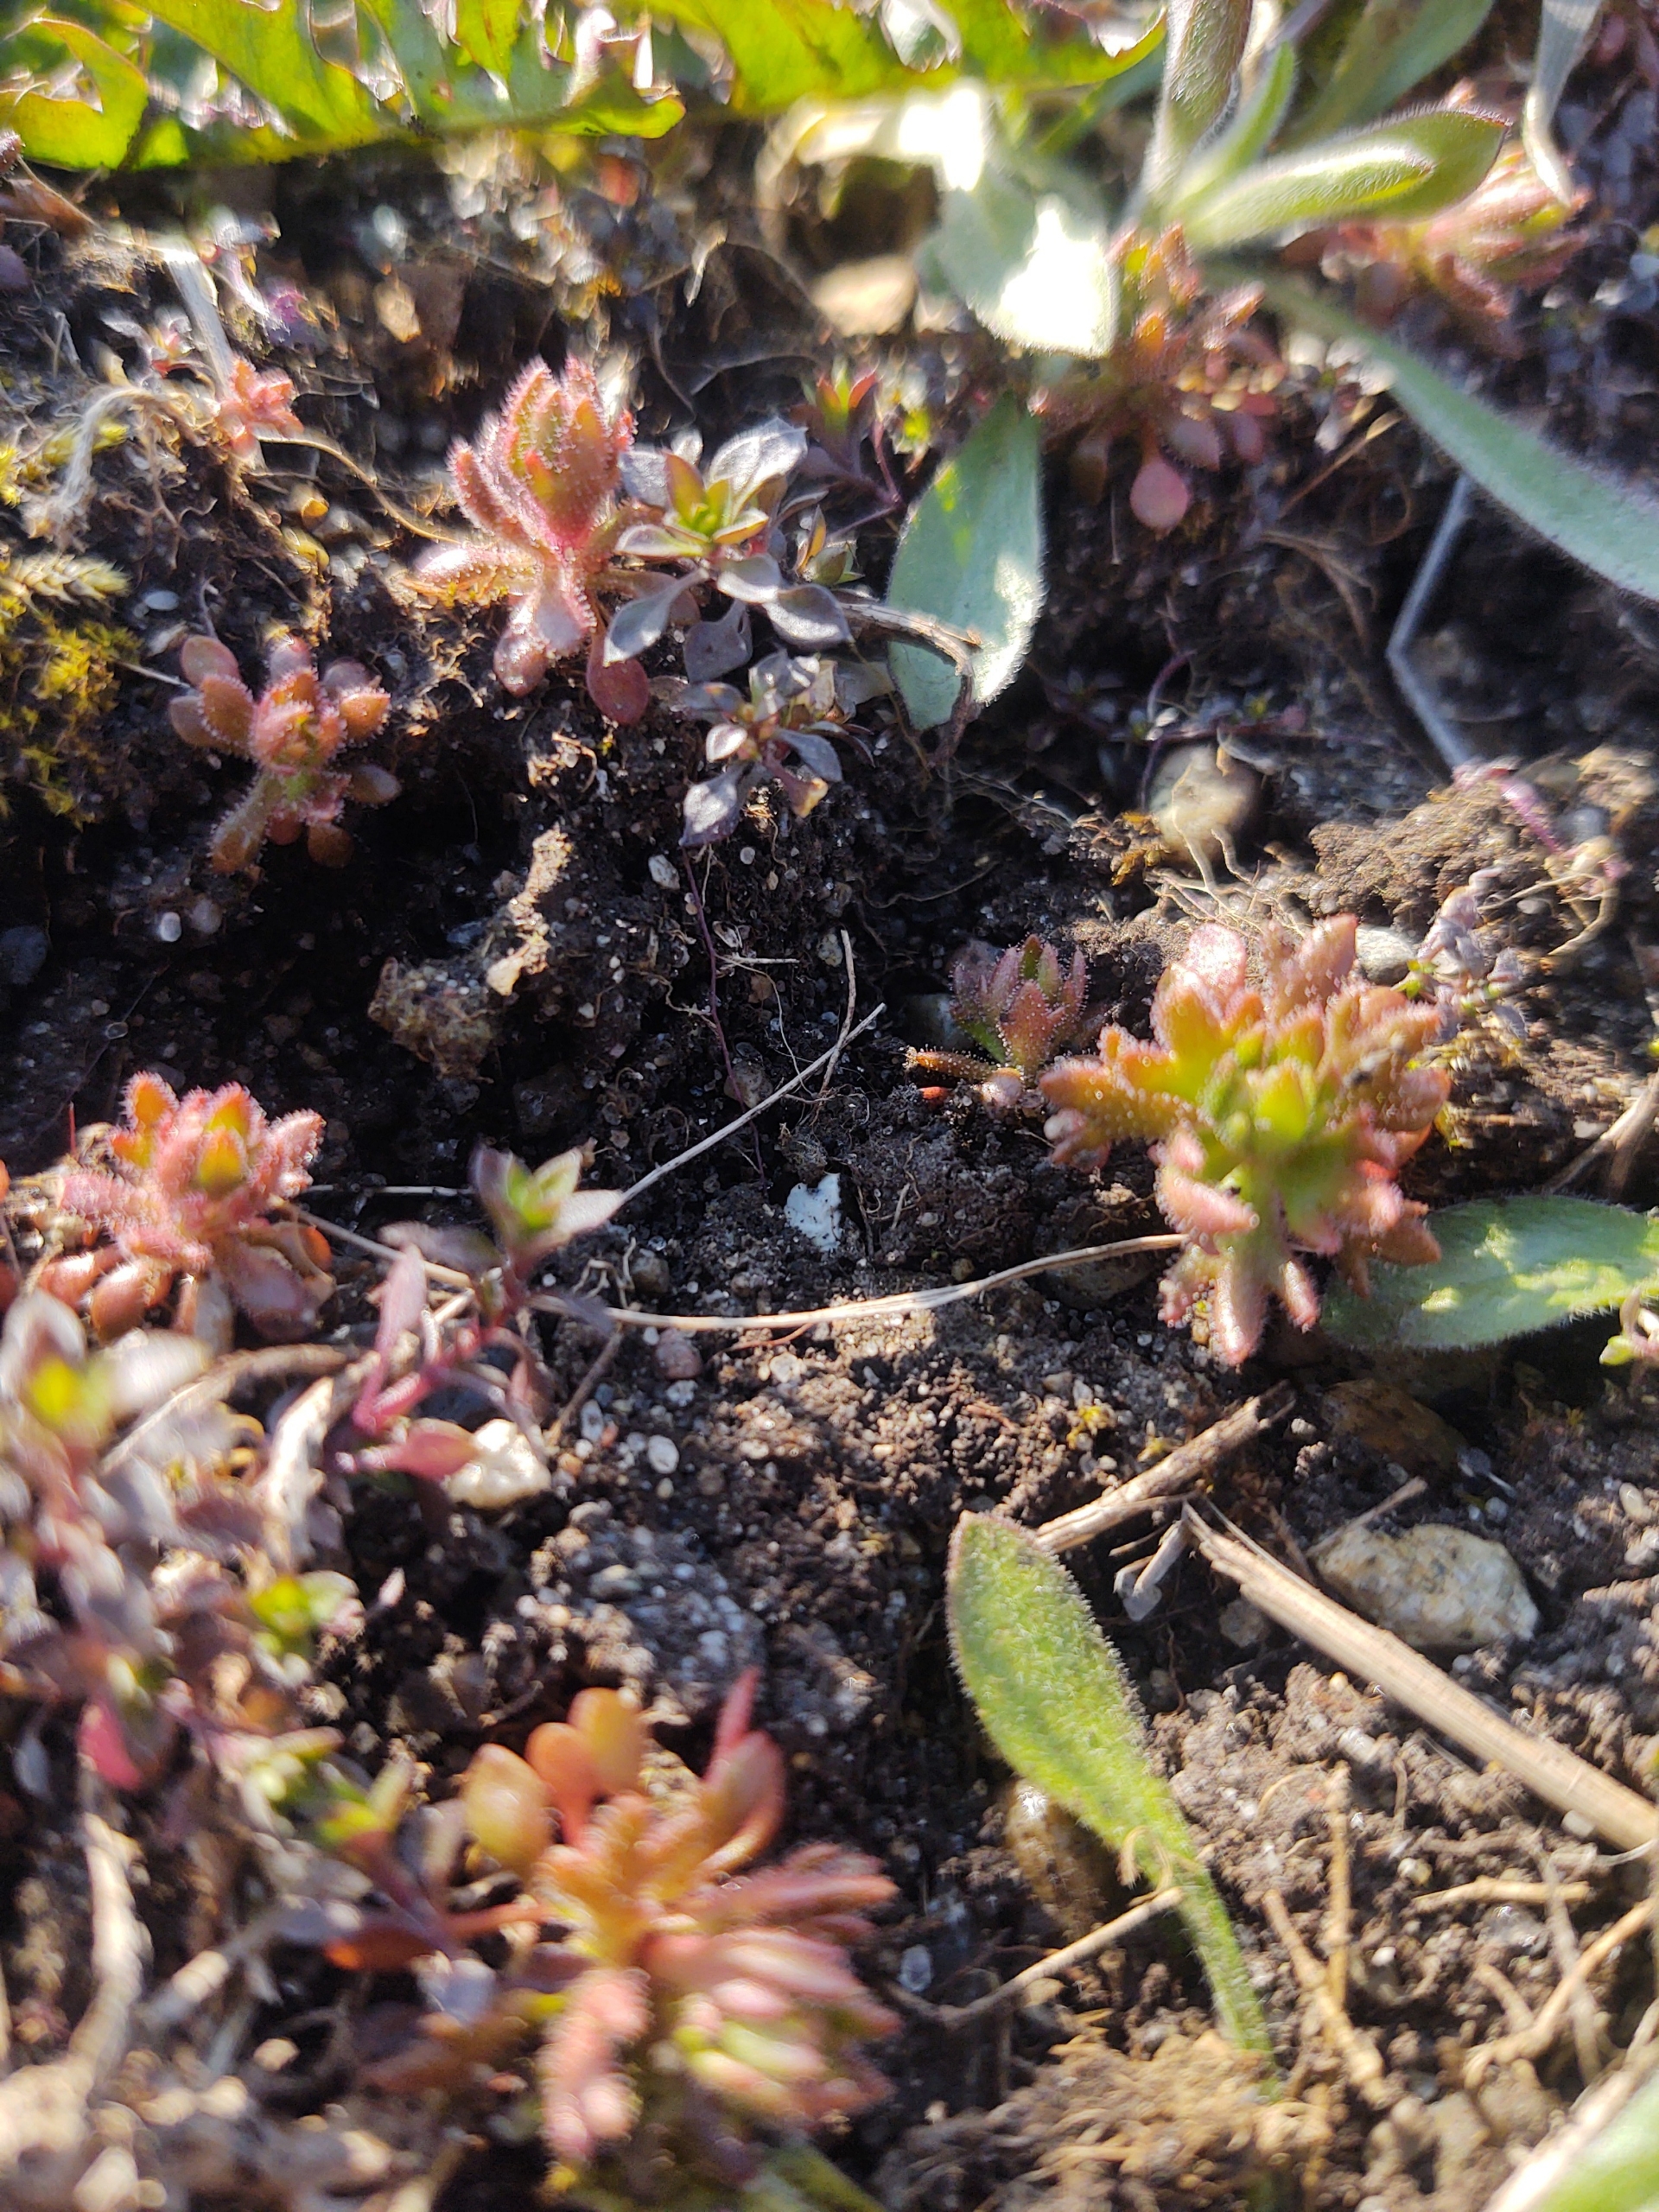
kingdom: Plantae
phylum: Tracheophyta
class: Magnoliopsida
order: Saxifragales
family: Saxifragaceae
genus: Saxifraga
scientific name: Saxifraga tridactylites
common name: Trekløft-stenbræk
